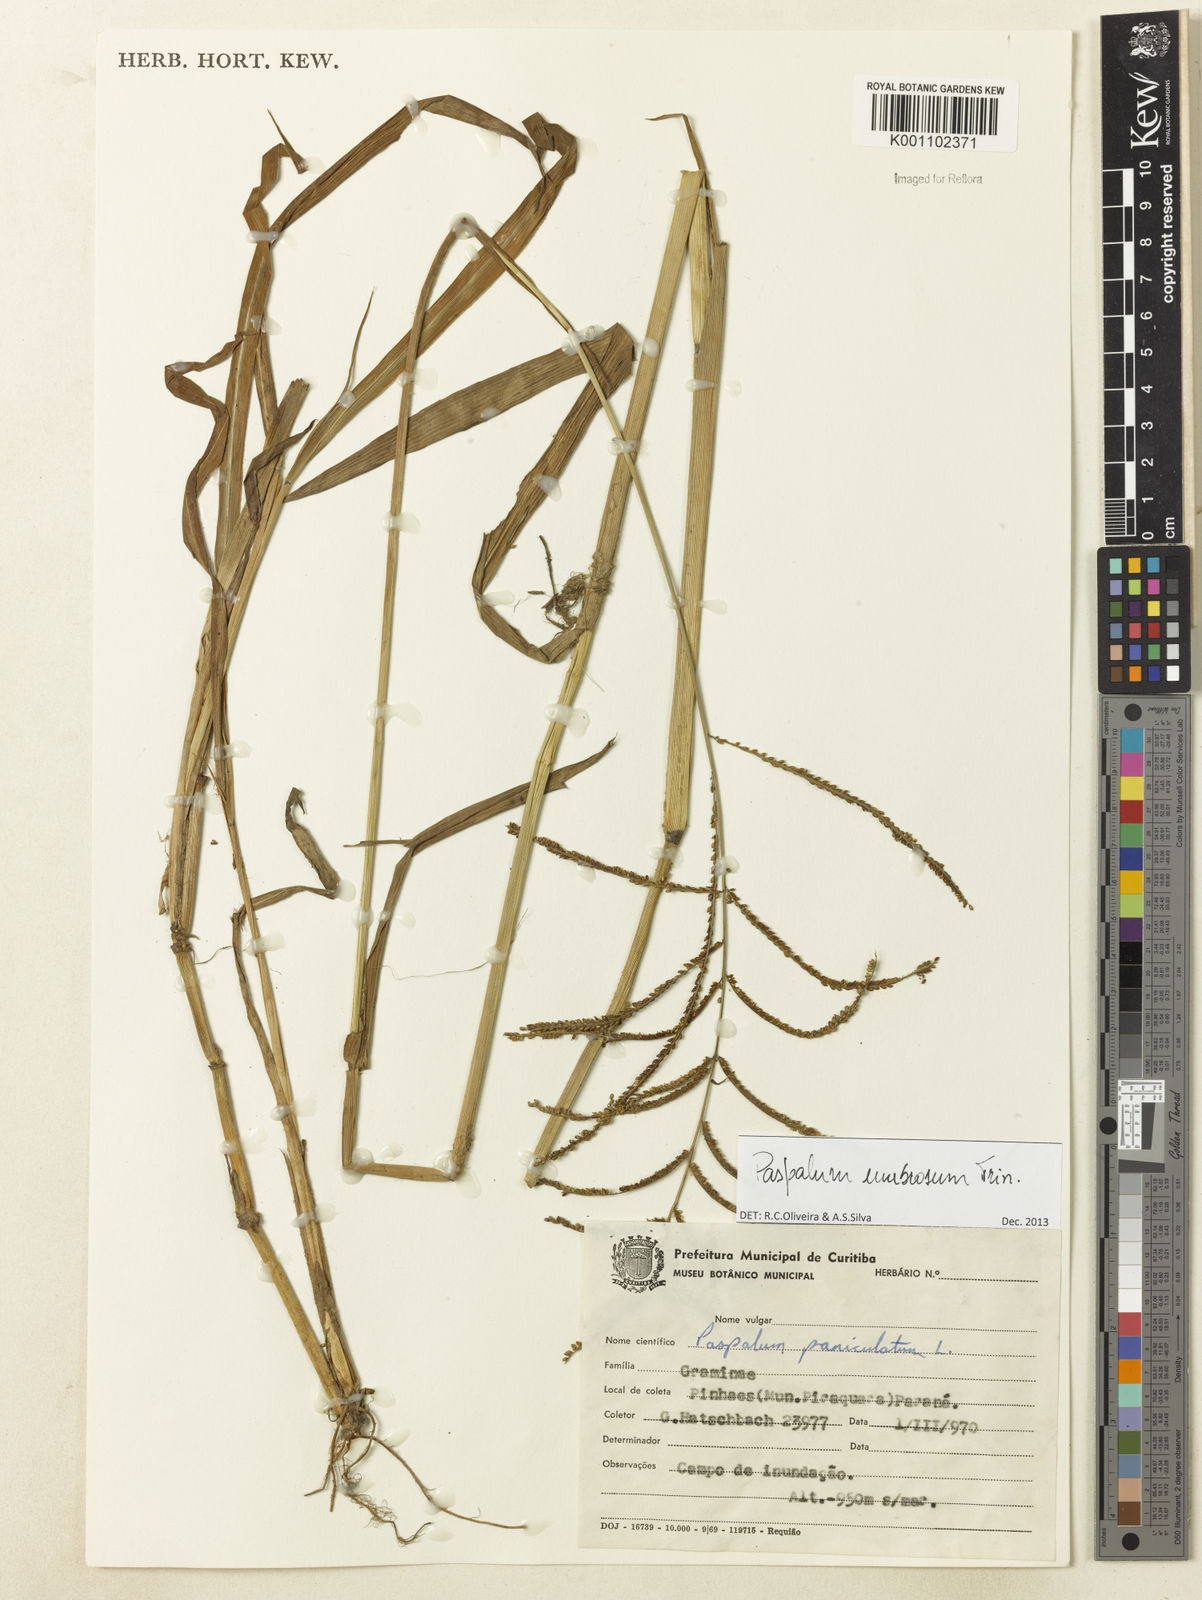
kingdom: Plantae
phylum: Tracheophyta
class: Liliopsida
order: Poales
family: Poaceae
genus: Paspalum
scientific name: Paspalum umbrosum
